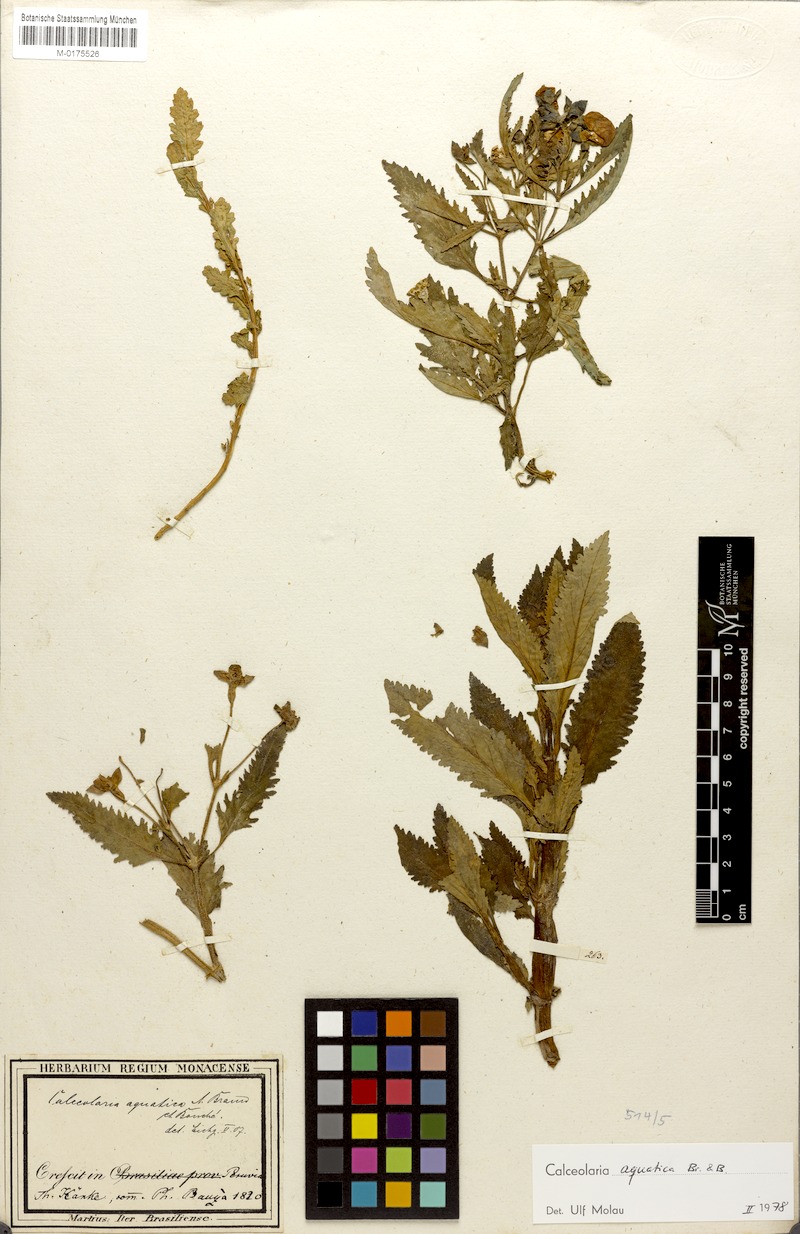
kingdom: Plantae
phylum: Tracheophyta
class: Magnoliopsida
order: Lamiales
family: Calceolariaceae
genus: Calceolaria
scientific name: Calceolaria aquatica
